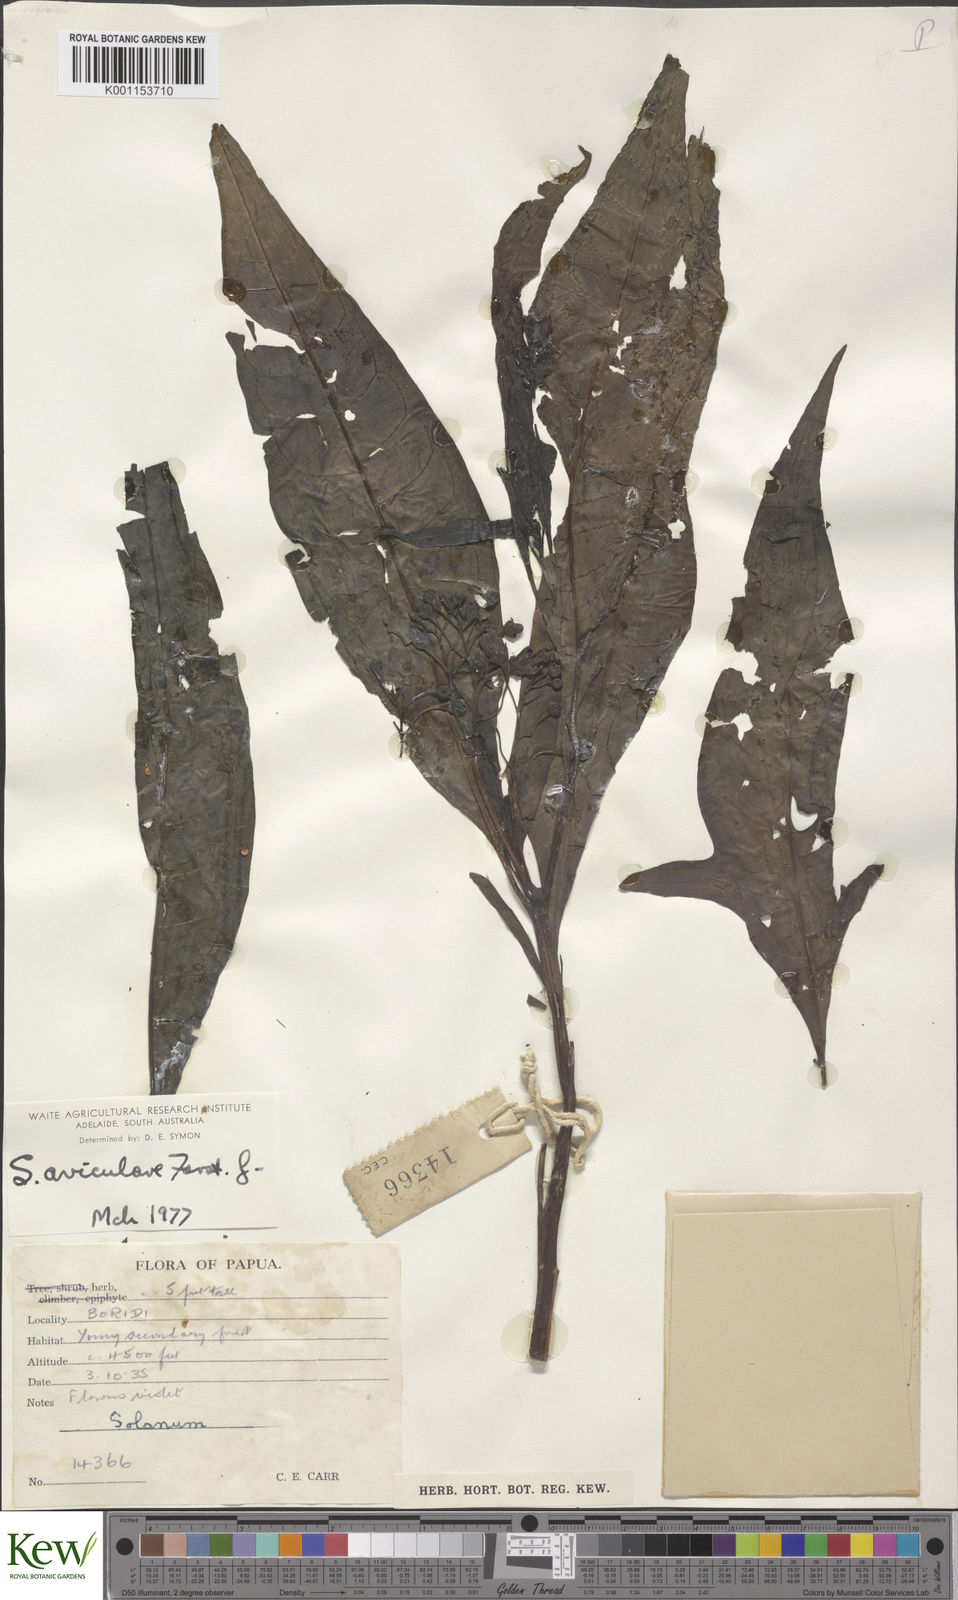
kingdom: Plantae
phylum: Tracheophyta
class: Magnoliopsida
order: Solanales
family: Solanaceae
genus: Solanum
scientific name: Solanum
